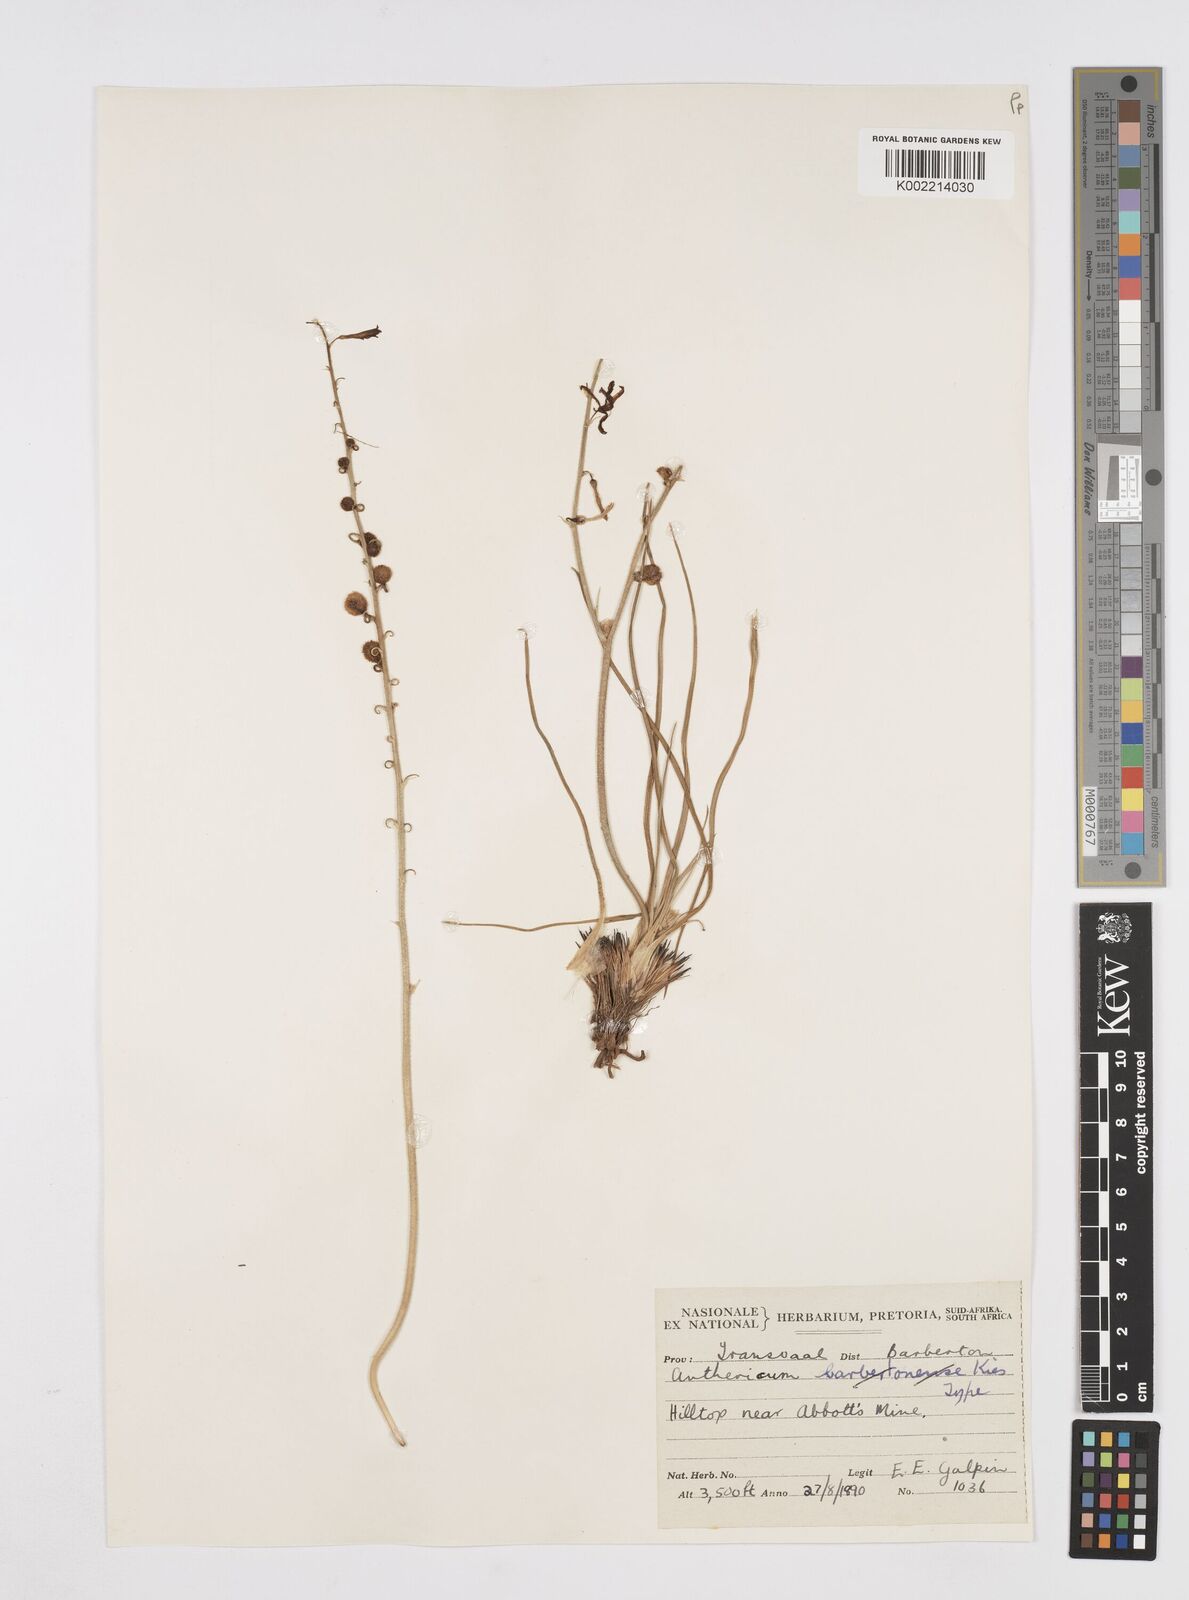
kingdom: Plantae
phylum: Tracheophyta
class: Liliopsida
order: Asparagales
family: Asphodelaceae
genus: Trachyandra
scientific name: Trachyandra gerrardii
